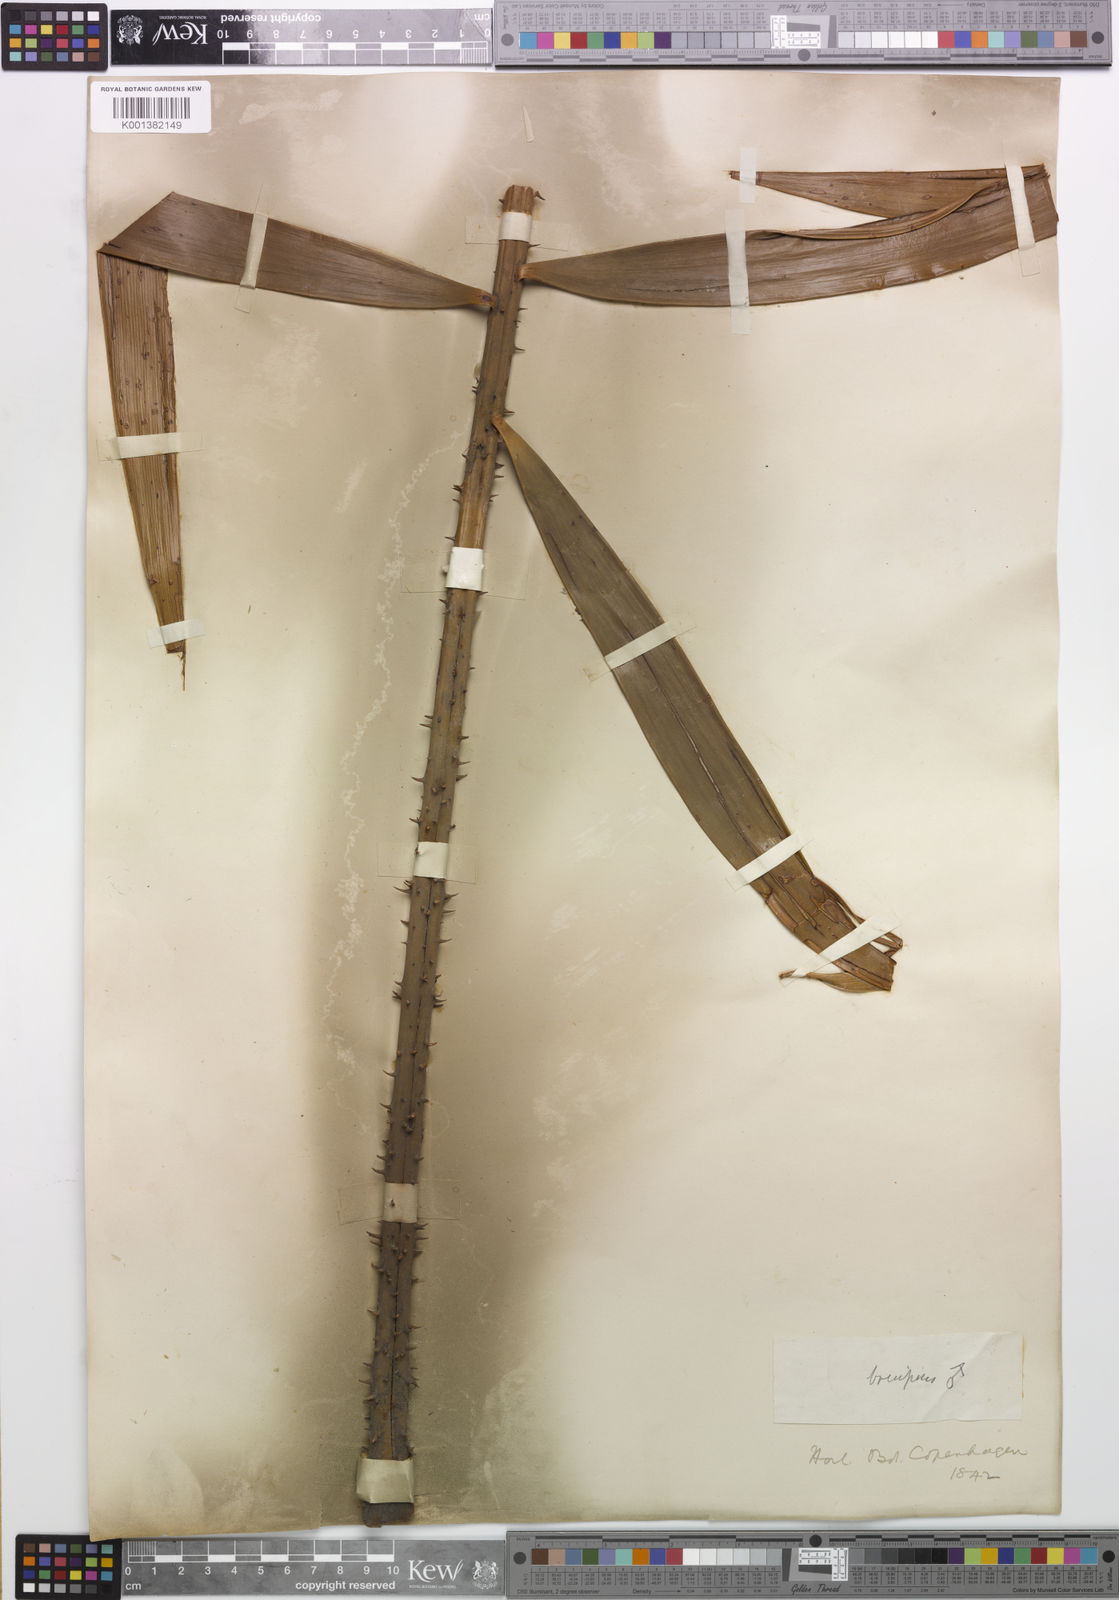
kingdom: Plantae
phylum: Tracheophyta
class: Cycadopsida
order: Cycadales
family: Zamiaceae
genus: Ceratozamia
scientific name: Ceratozamia mexicana
